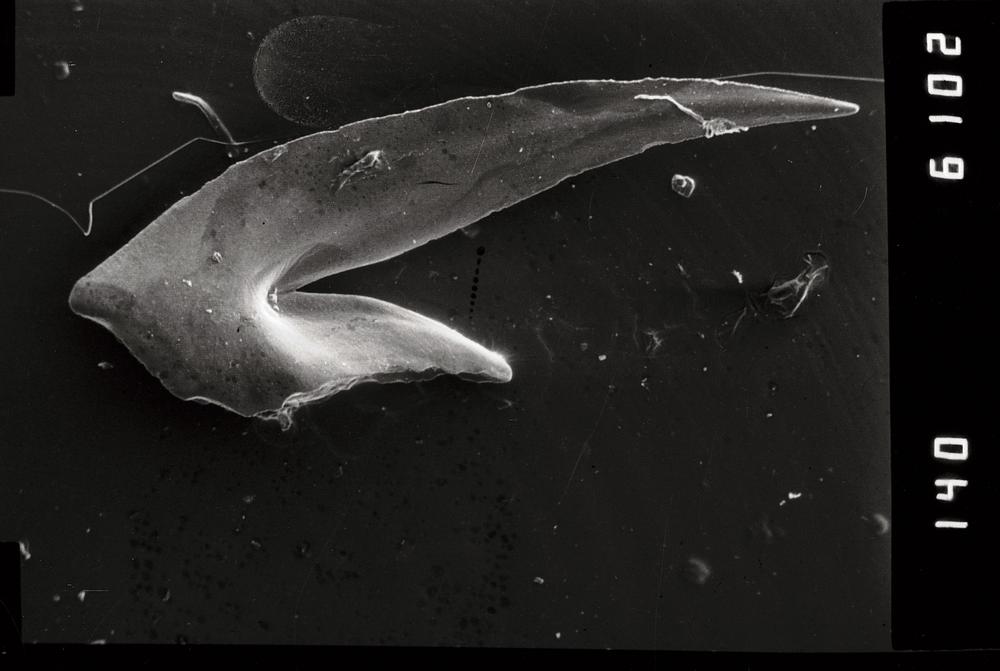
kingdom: Animalia
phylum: Chordata
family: Oistodontidae
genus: Oistodus
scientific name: Oistodus lanceolatus
